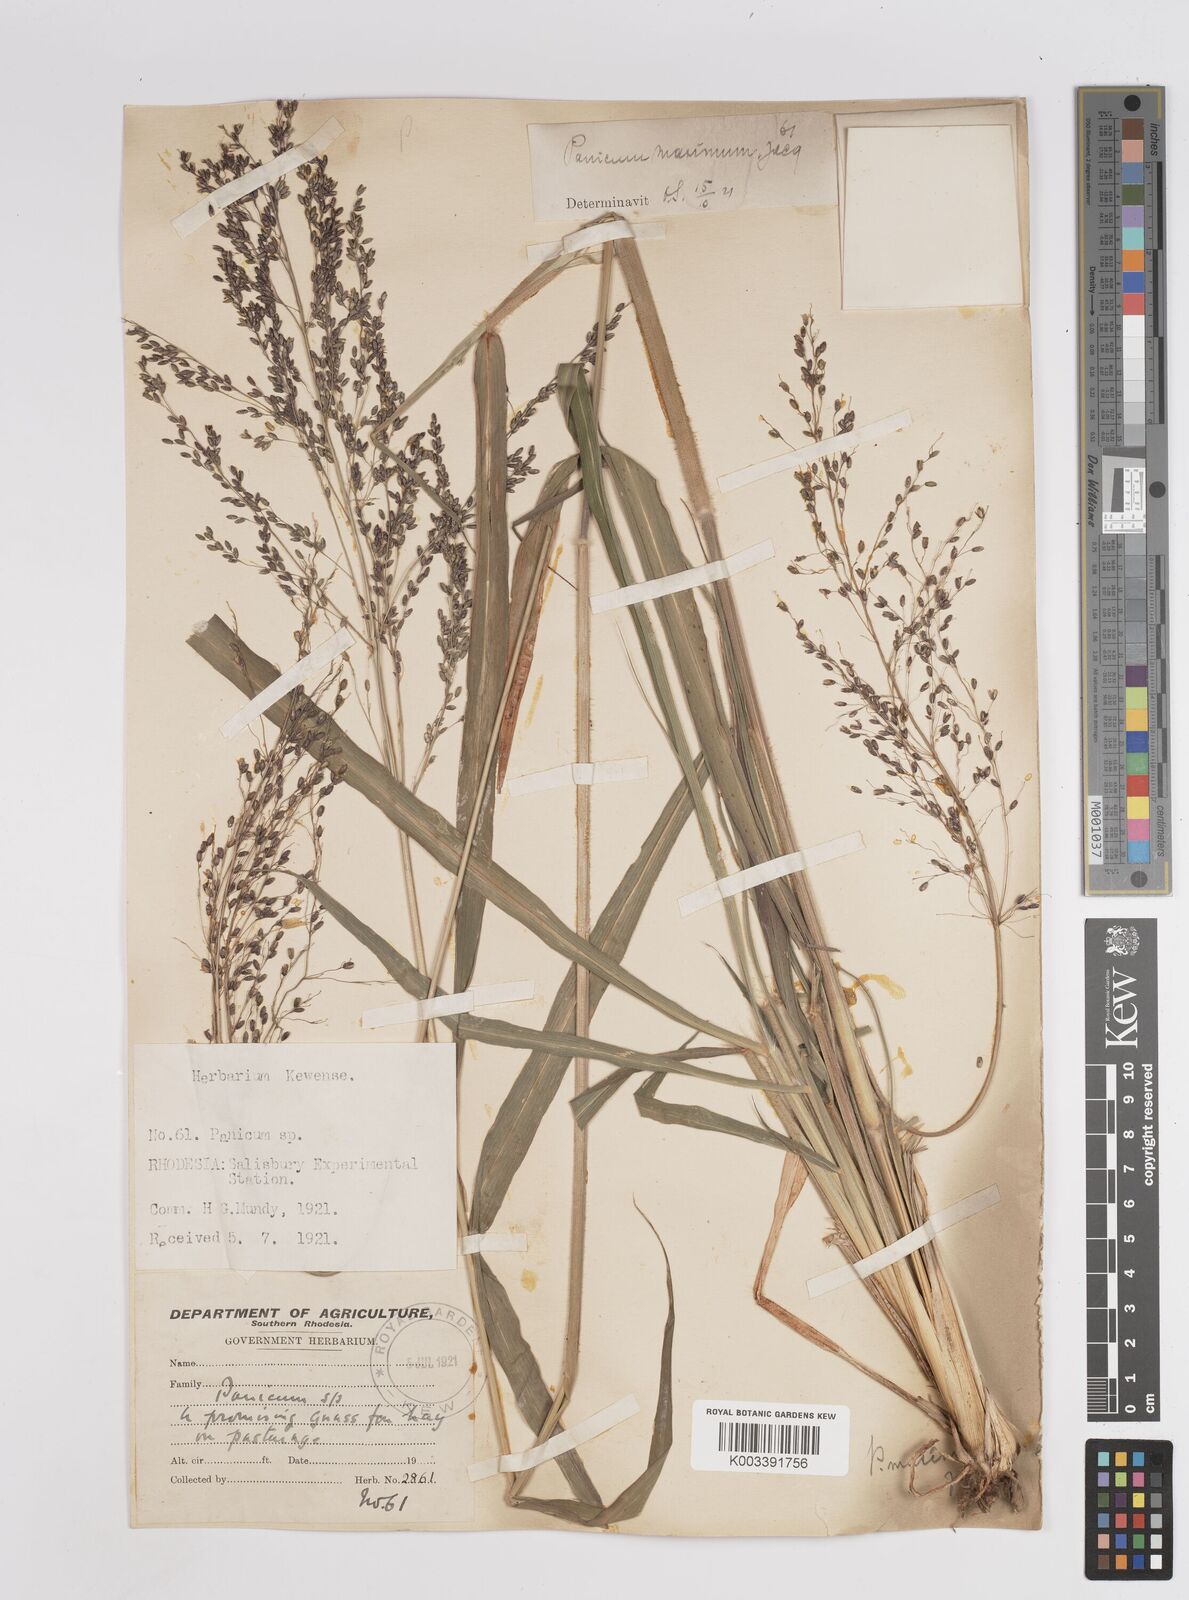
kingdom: Plantae
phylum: Tracheophyta
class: Liliopsida
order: Poales
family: Poaceae
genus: Megathyrsus
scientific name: Megathyrsus maximus
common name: Guineagrass
